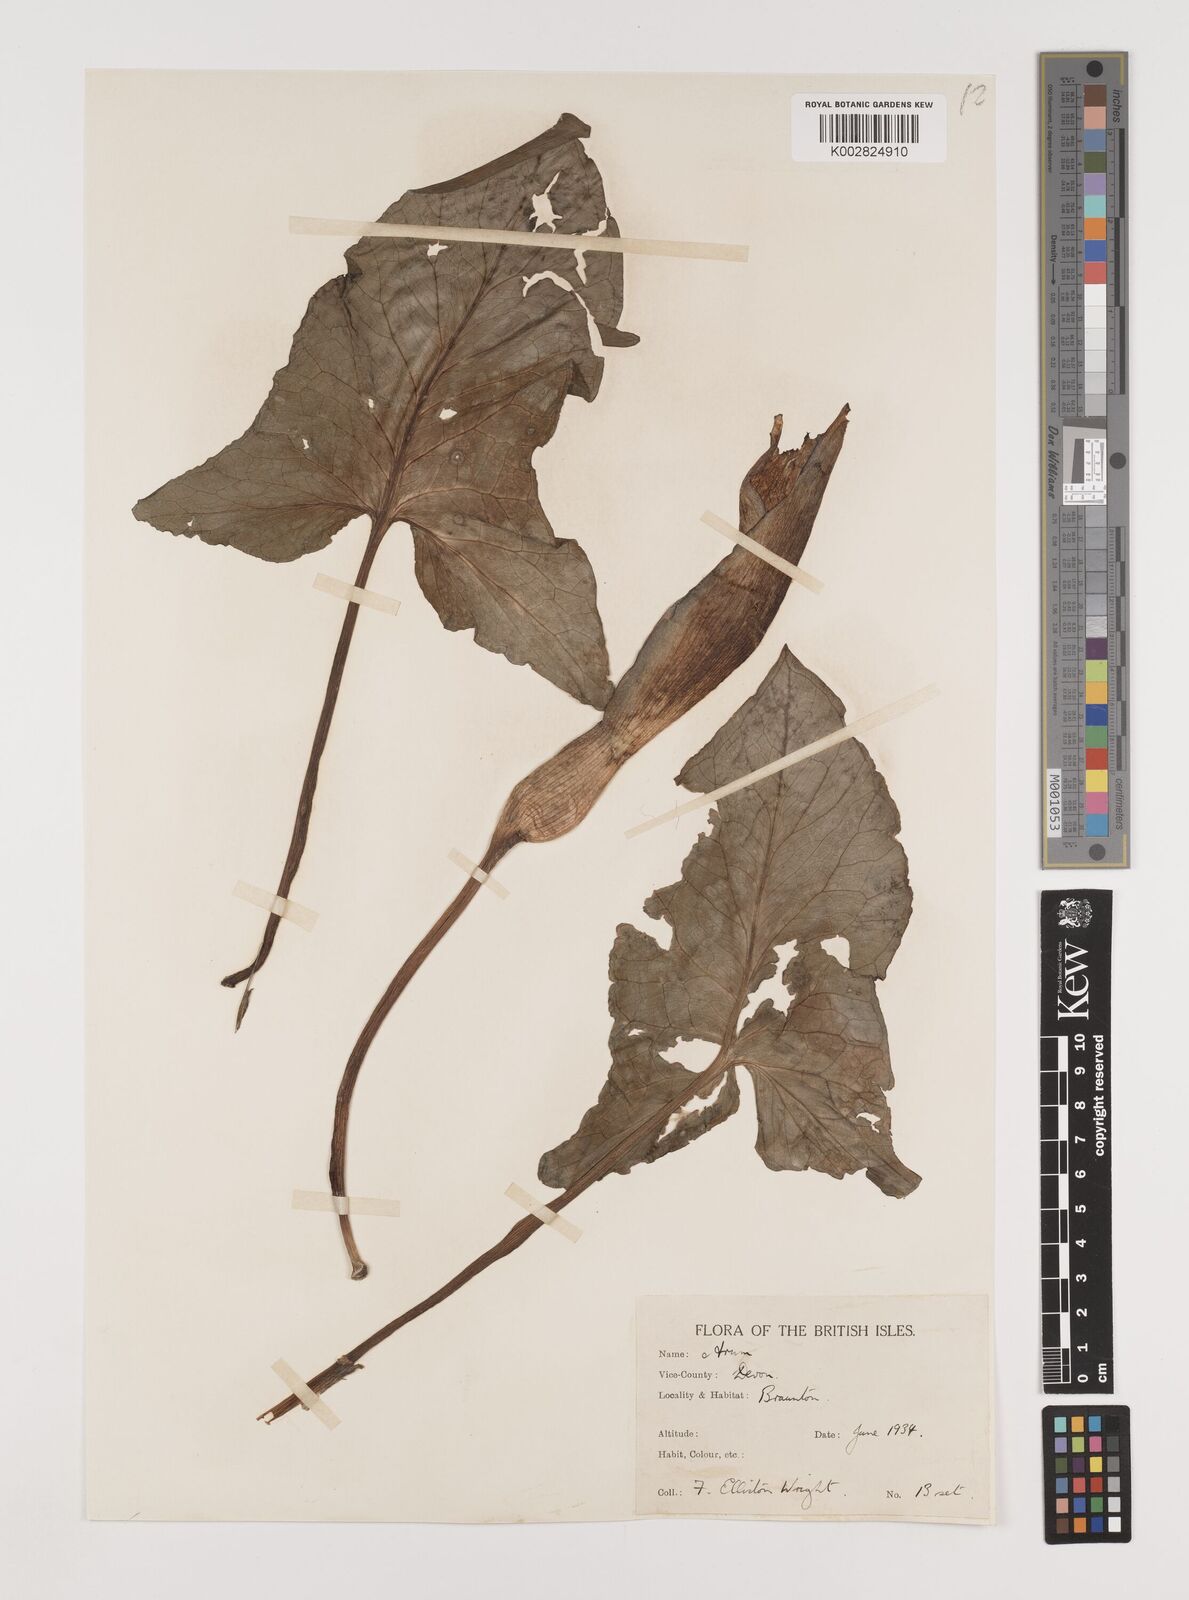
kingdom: Plantae
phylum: Tracheophyta
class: Liliopsida
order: Alismatales
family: Araceae
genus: Arum
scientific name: Arum italicum
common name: Italian lords-and-ladies
